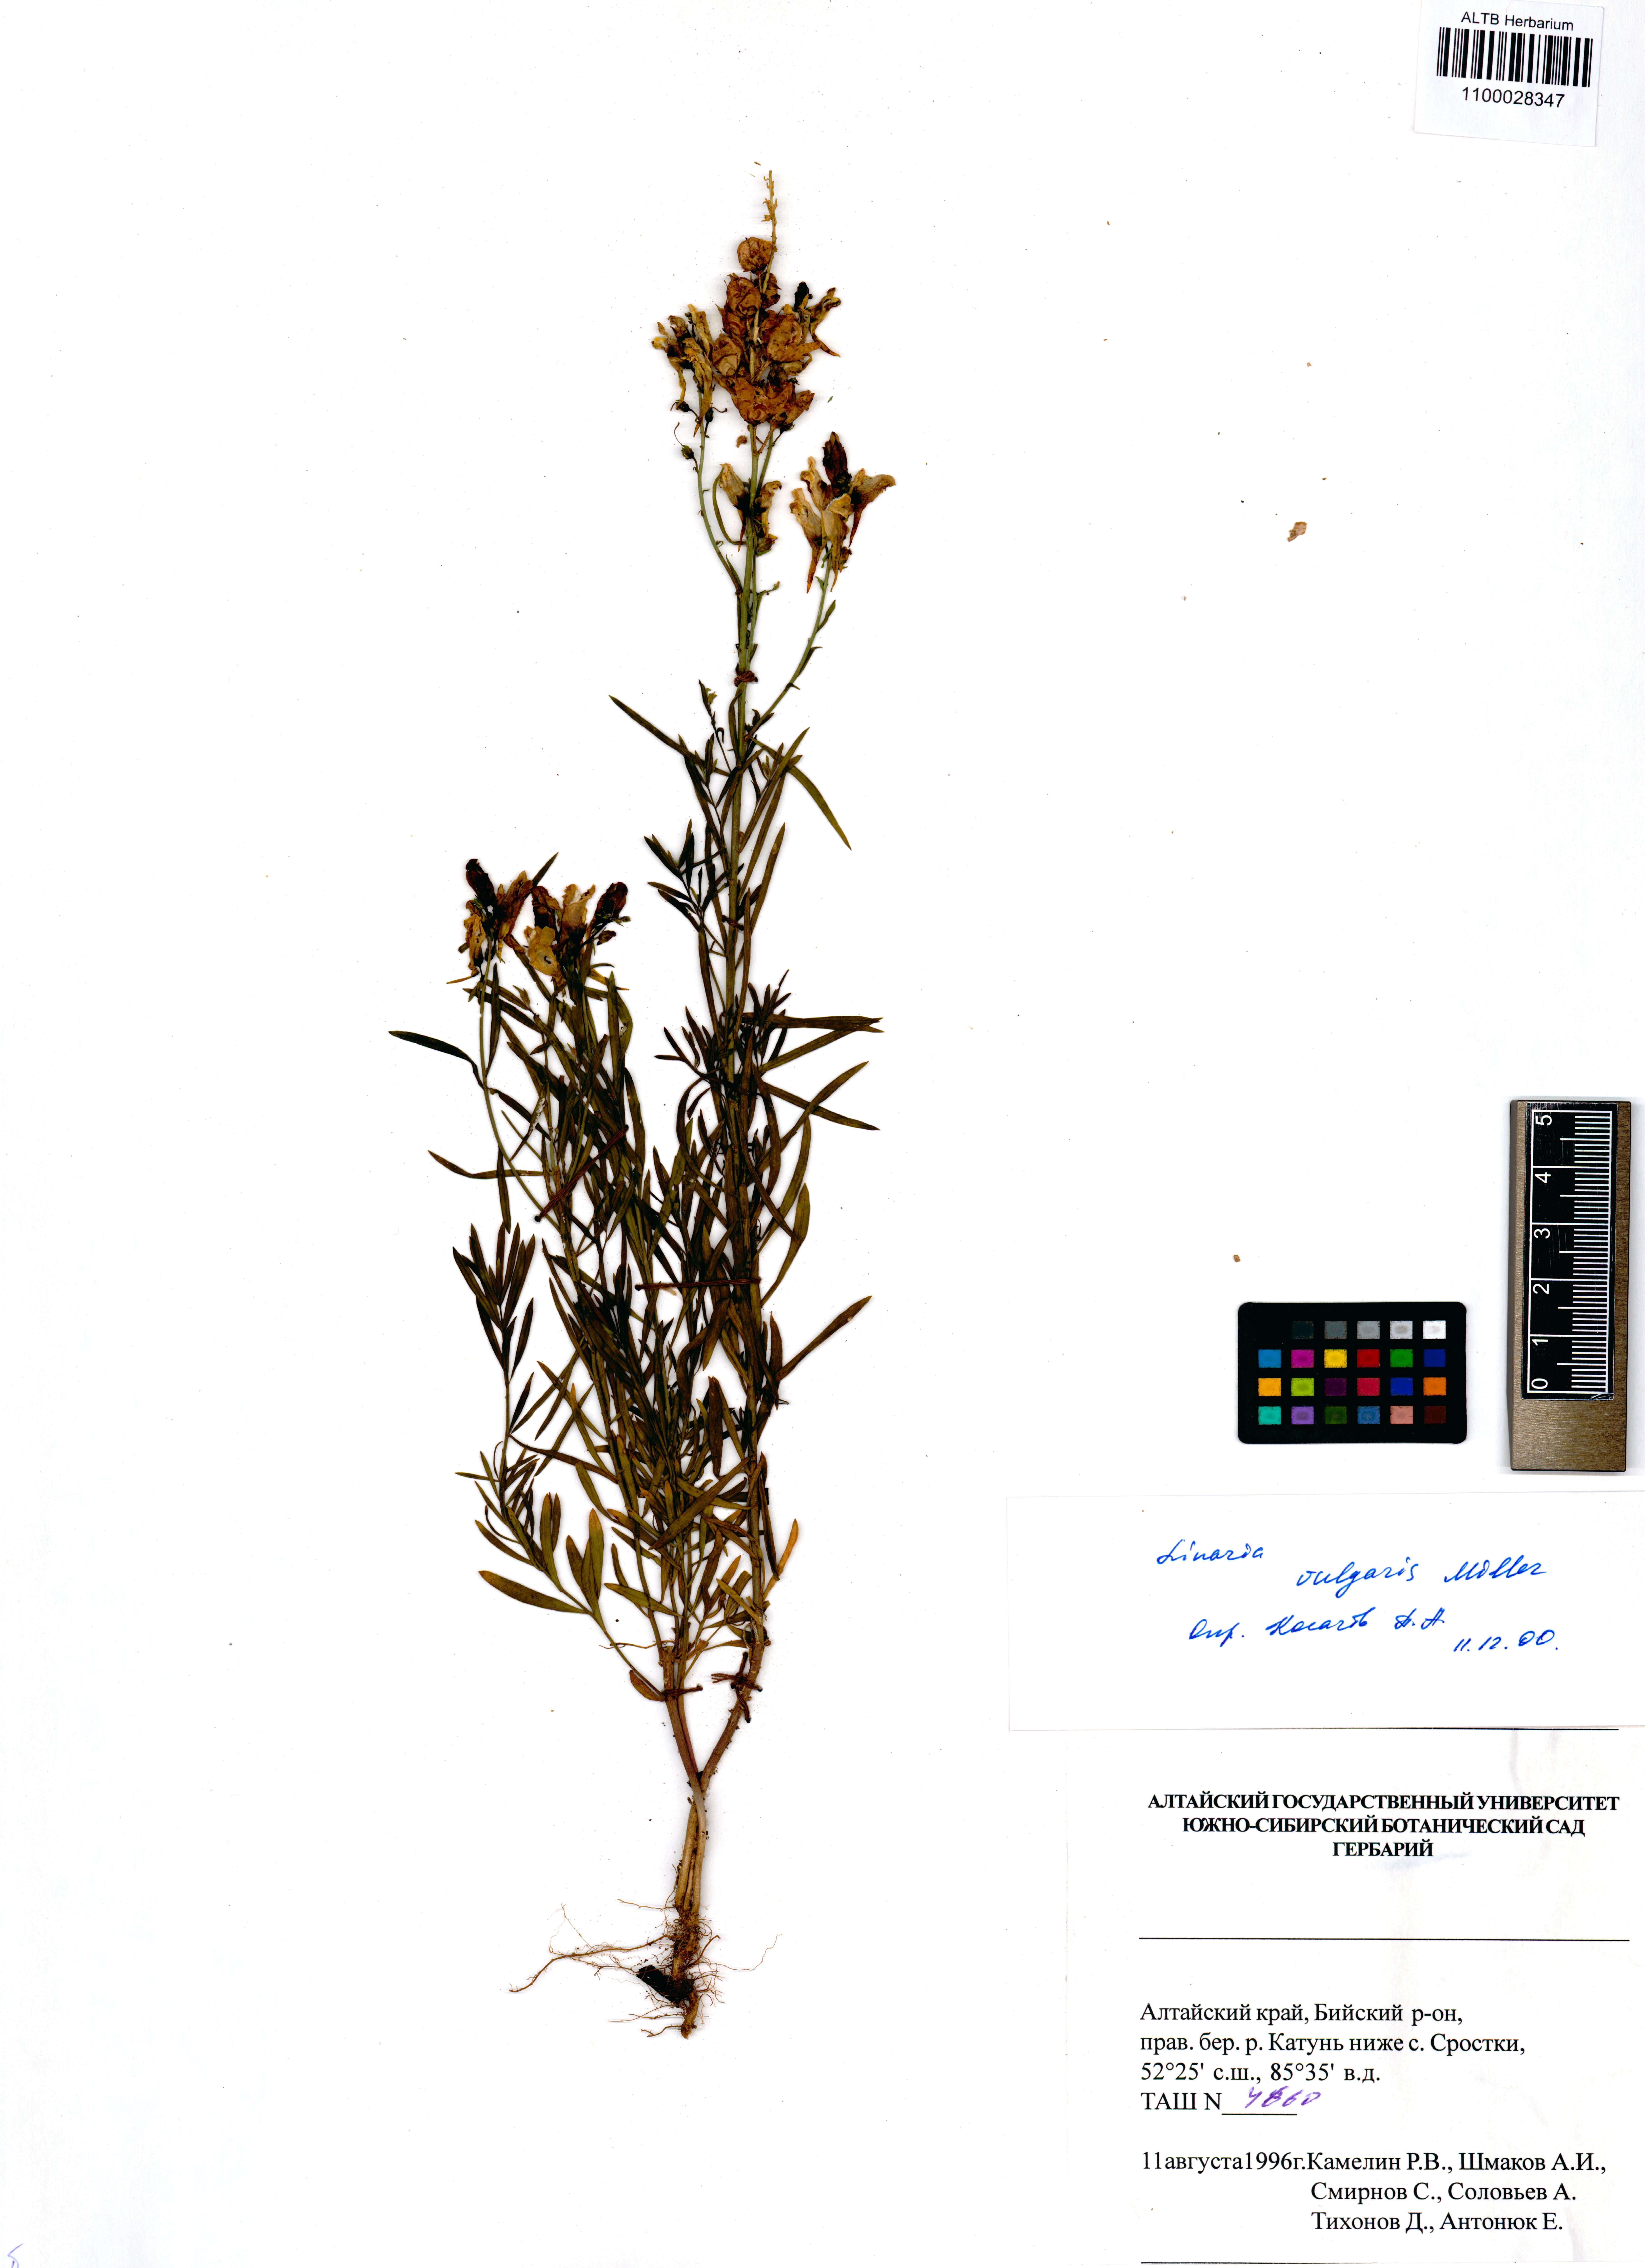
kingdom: Plantae
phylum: Tracheophyta
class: Magnoliopsida
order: Lamiales
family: Plantaginaceae
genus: Linaria
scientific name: Linaria vulgaris
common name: Butter and eggs
